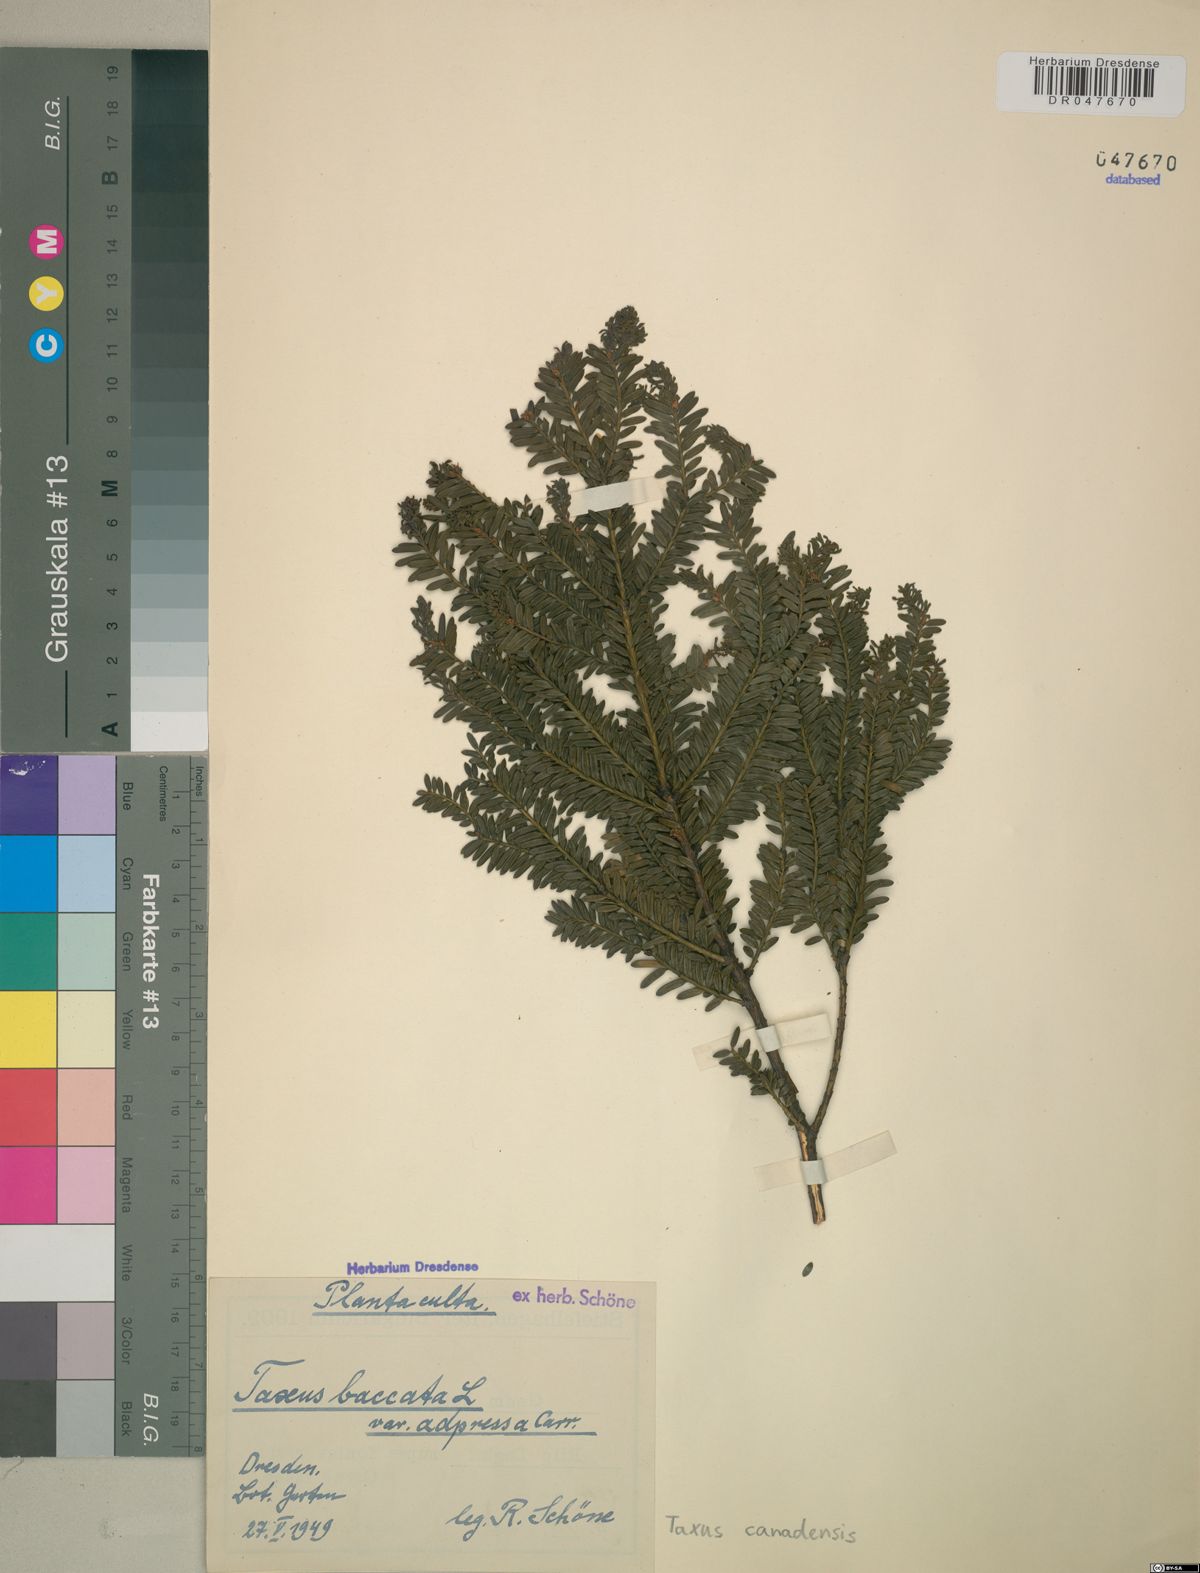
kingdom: Plantae
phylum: Tracheophyta
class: Pinopsida
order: Pinales
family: Taxaceae
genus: Taxus
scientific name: Taxus canadensis
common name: American yew
